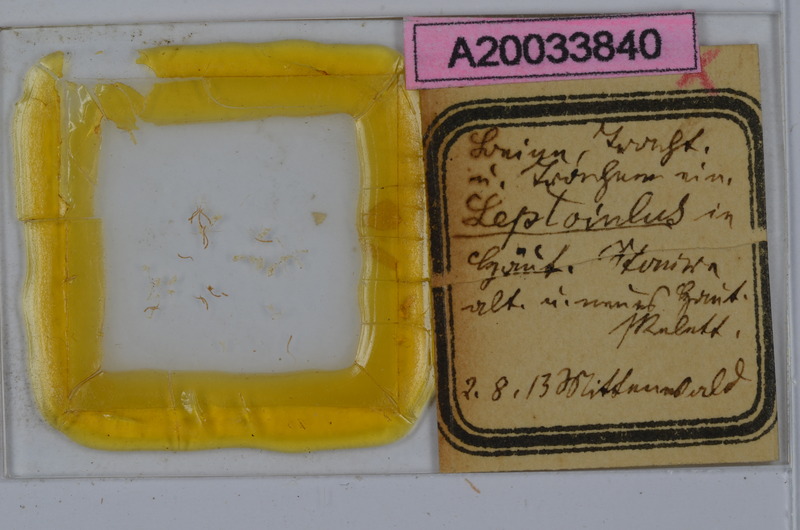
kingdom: Animalia
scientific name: Animalia
